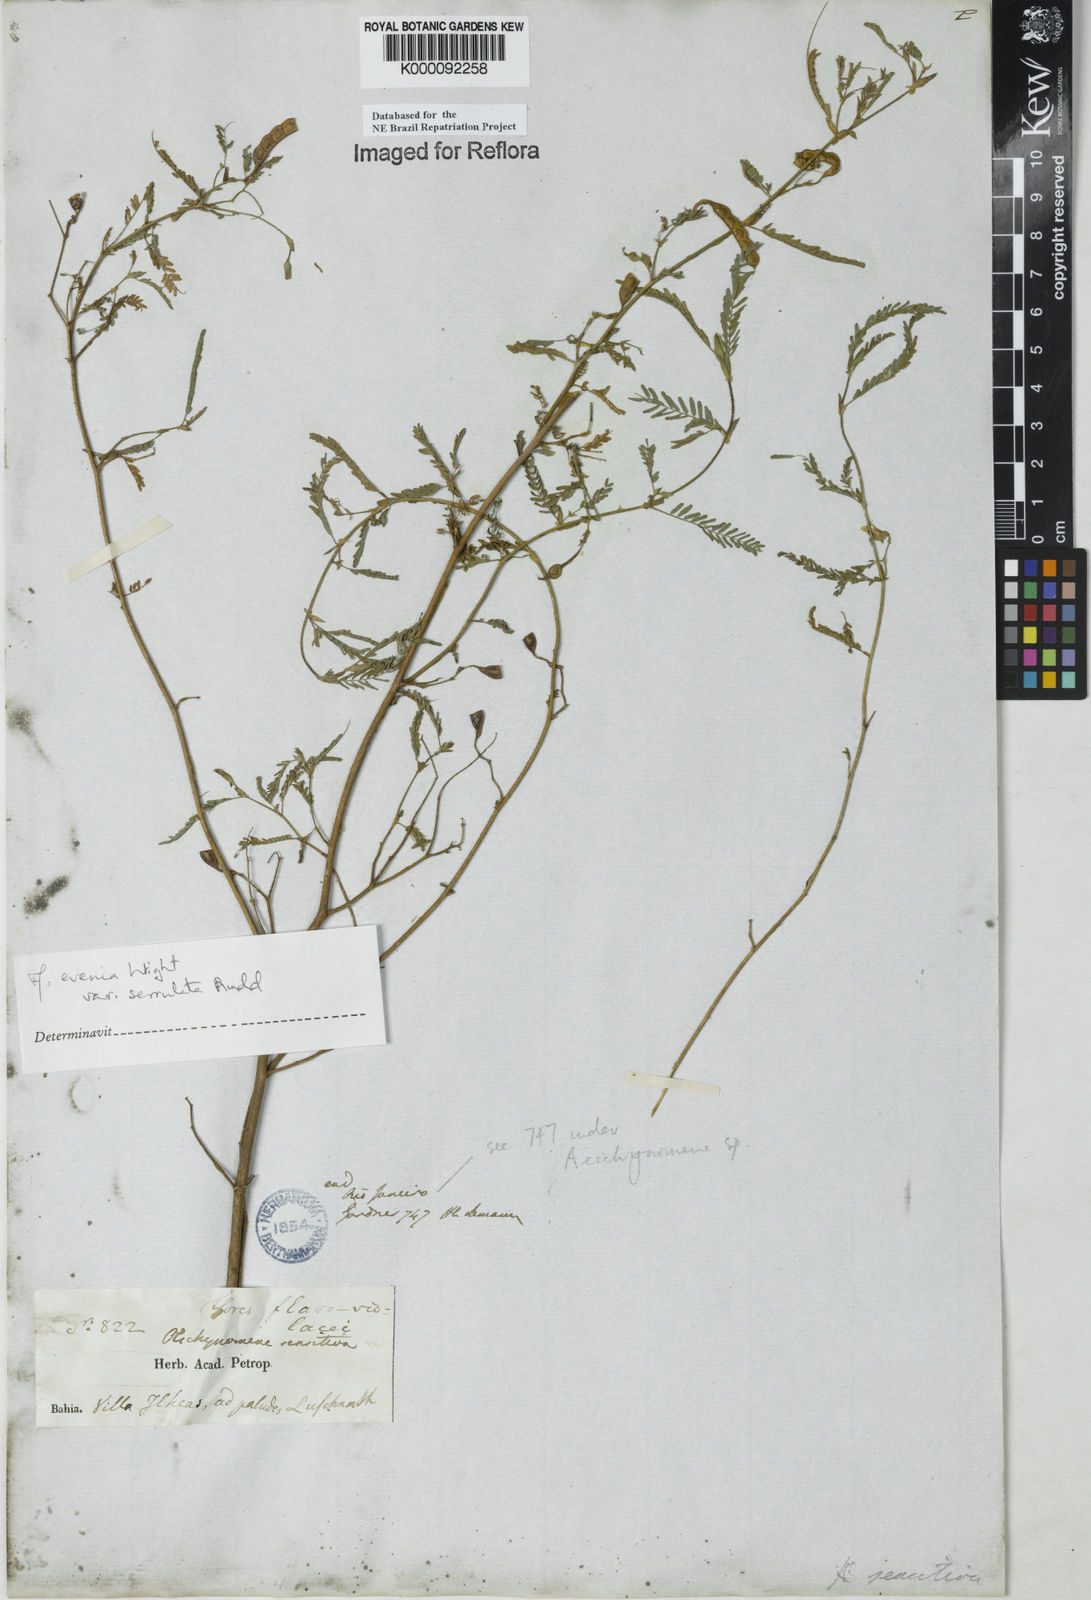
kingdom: Plantae
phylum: Tracheophyta
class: Magnoliopsida
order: Fabales
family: Fabaceae
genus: Aeschynomene
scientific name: Aeschynomene evenia
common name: Shrubby jointvetch
